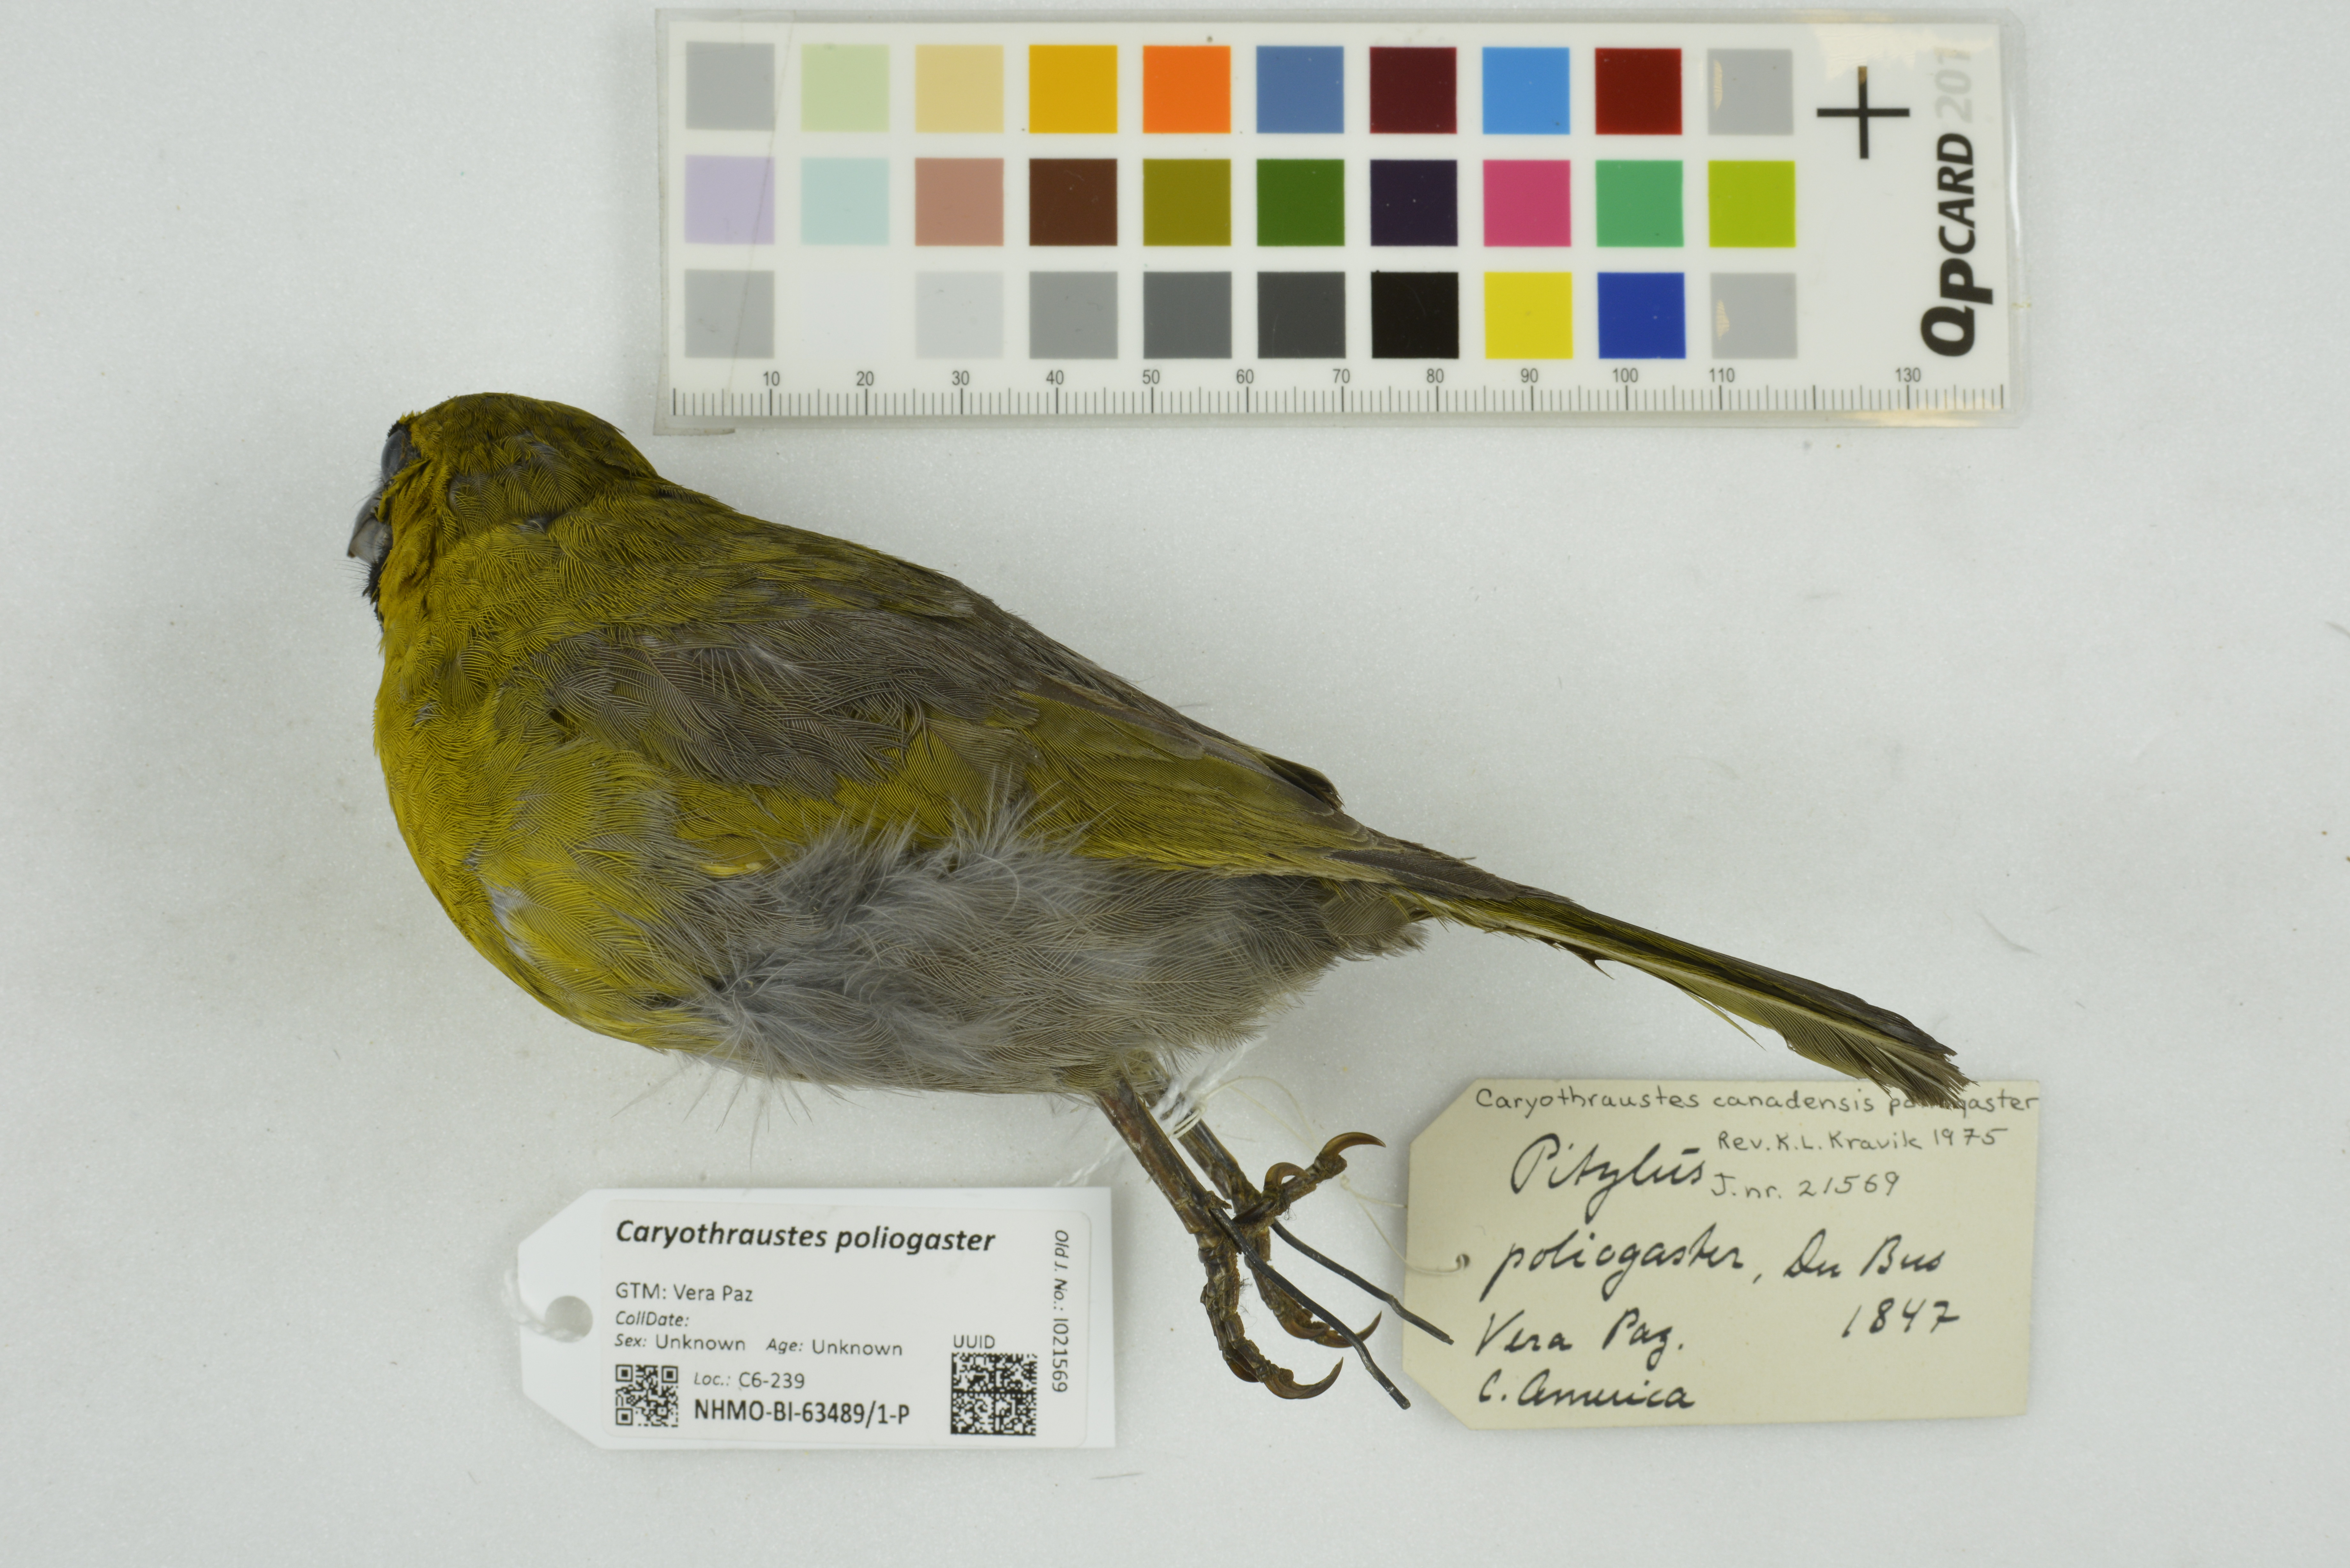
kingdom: Animalia
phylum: Chordata
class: Aves
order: Passeriformes
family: Cardinalidae
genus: Caryothraustes
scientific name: Caryothraustes poliogaster
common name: Black-faced grosbeak
